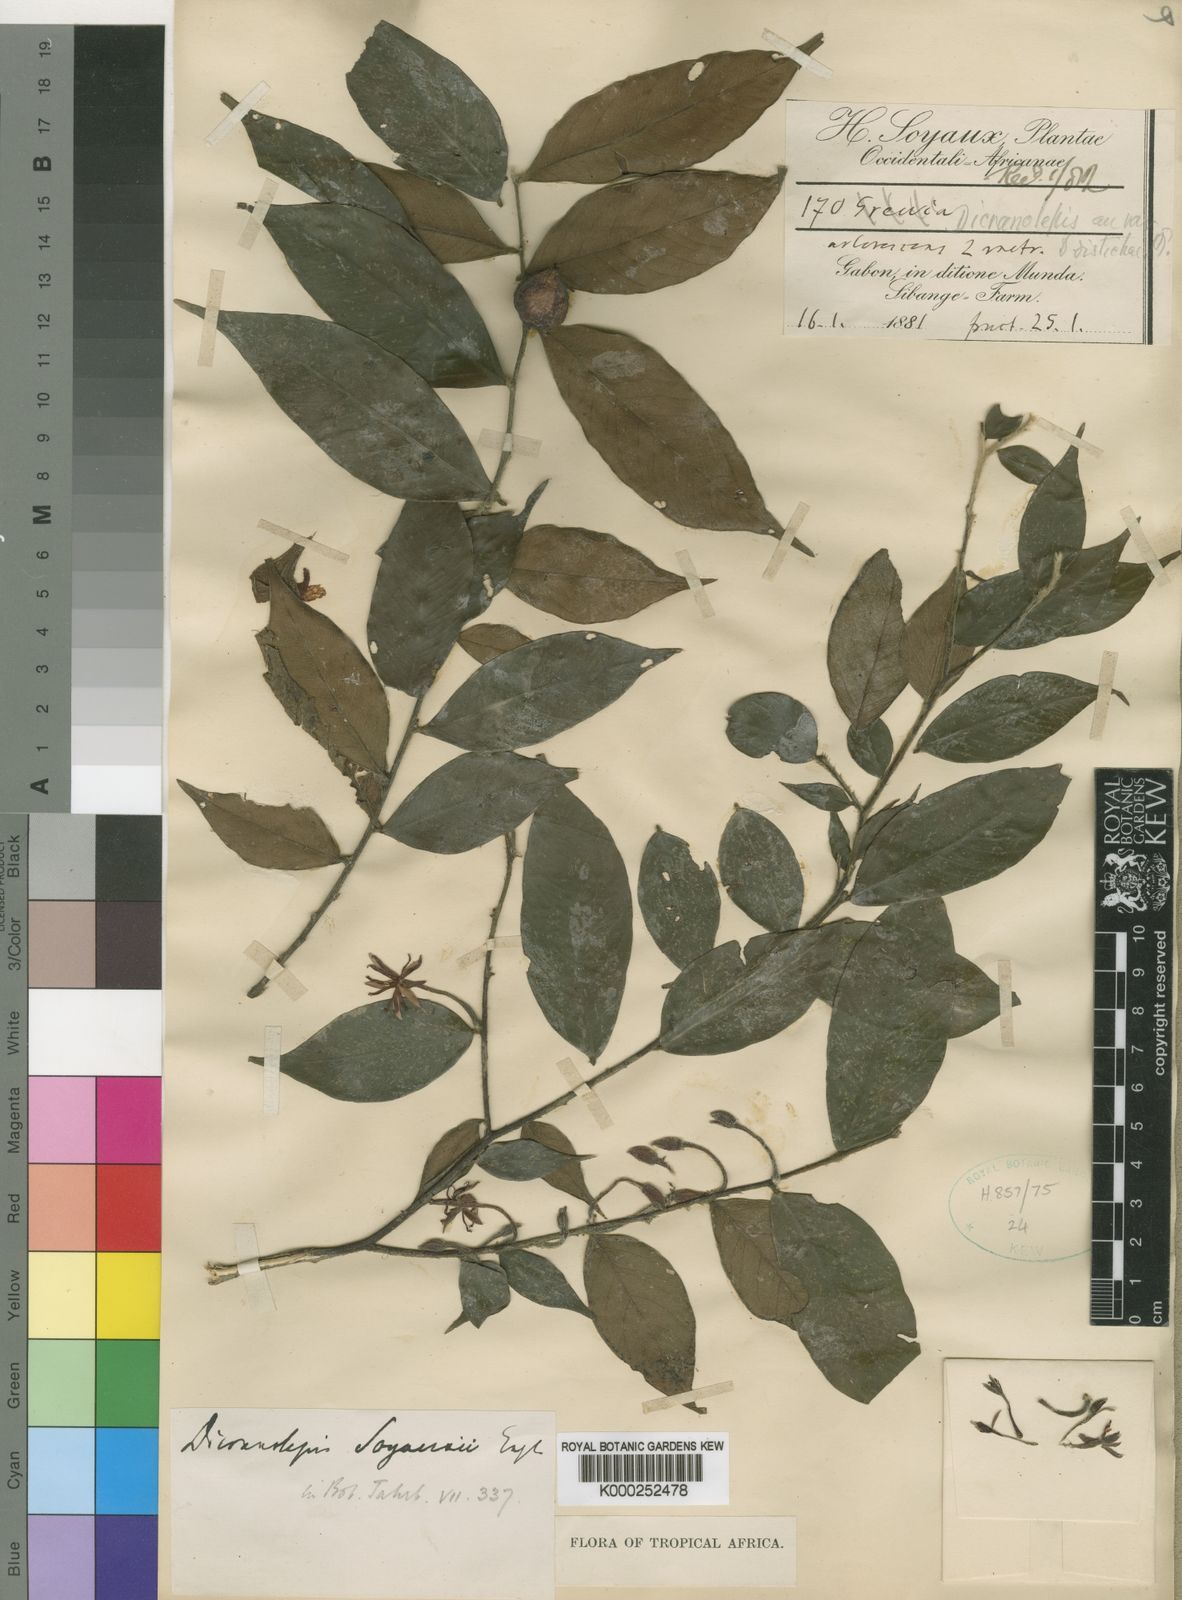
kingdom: Plantae
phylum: Tracheophyta
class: Magnoliopsida
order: Malvales
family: Thymelaeaceae
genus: Dicranolepis
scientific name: Dicranolepis soyauxii
